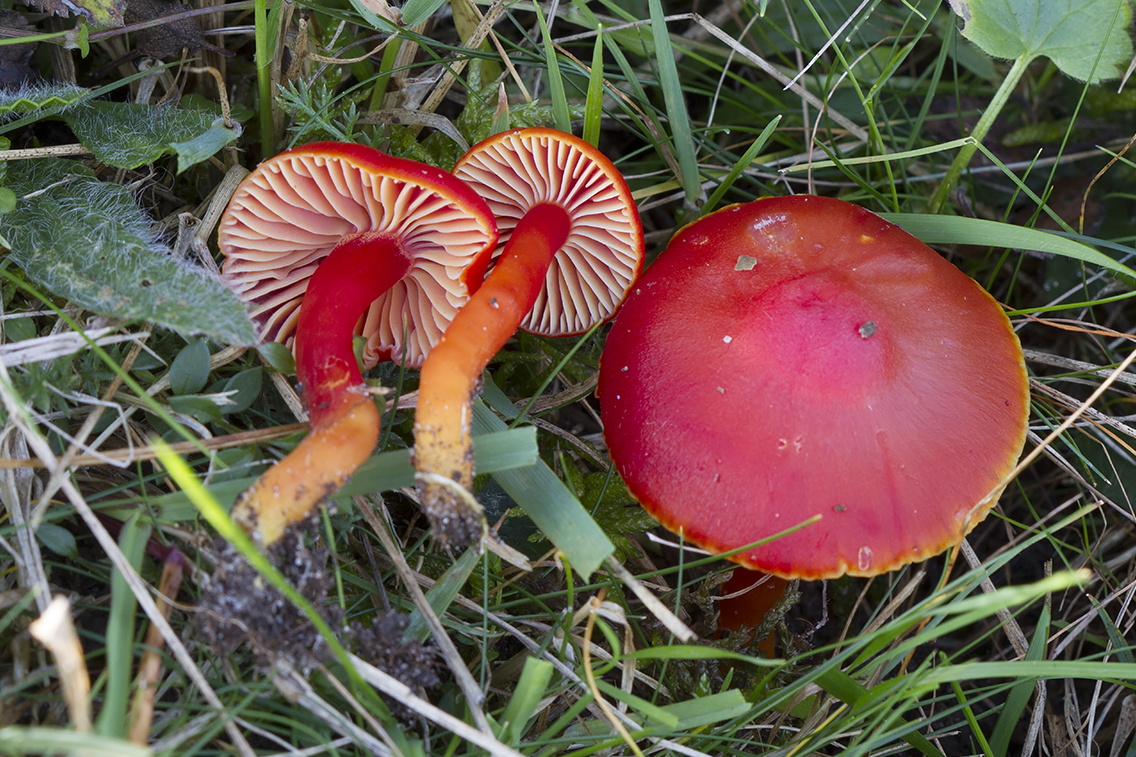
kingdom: Fungi
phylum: Basidiomycota
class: Agaricomycetes
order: Agaricales
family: Hygrophoraceae
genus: Hygrocybe
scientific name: Hygrocybe coccinea
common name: cinnober-vokshat
